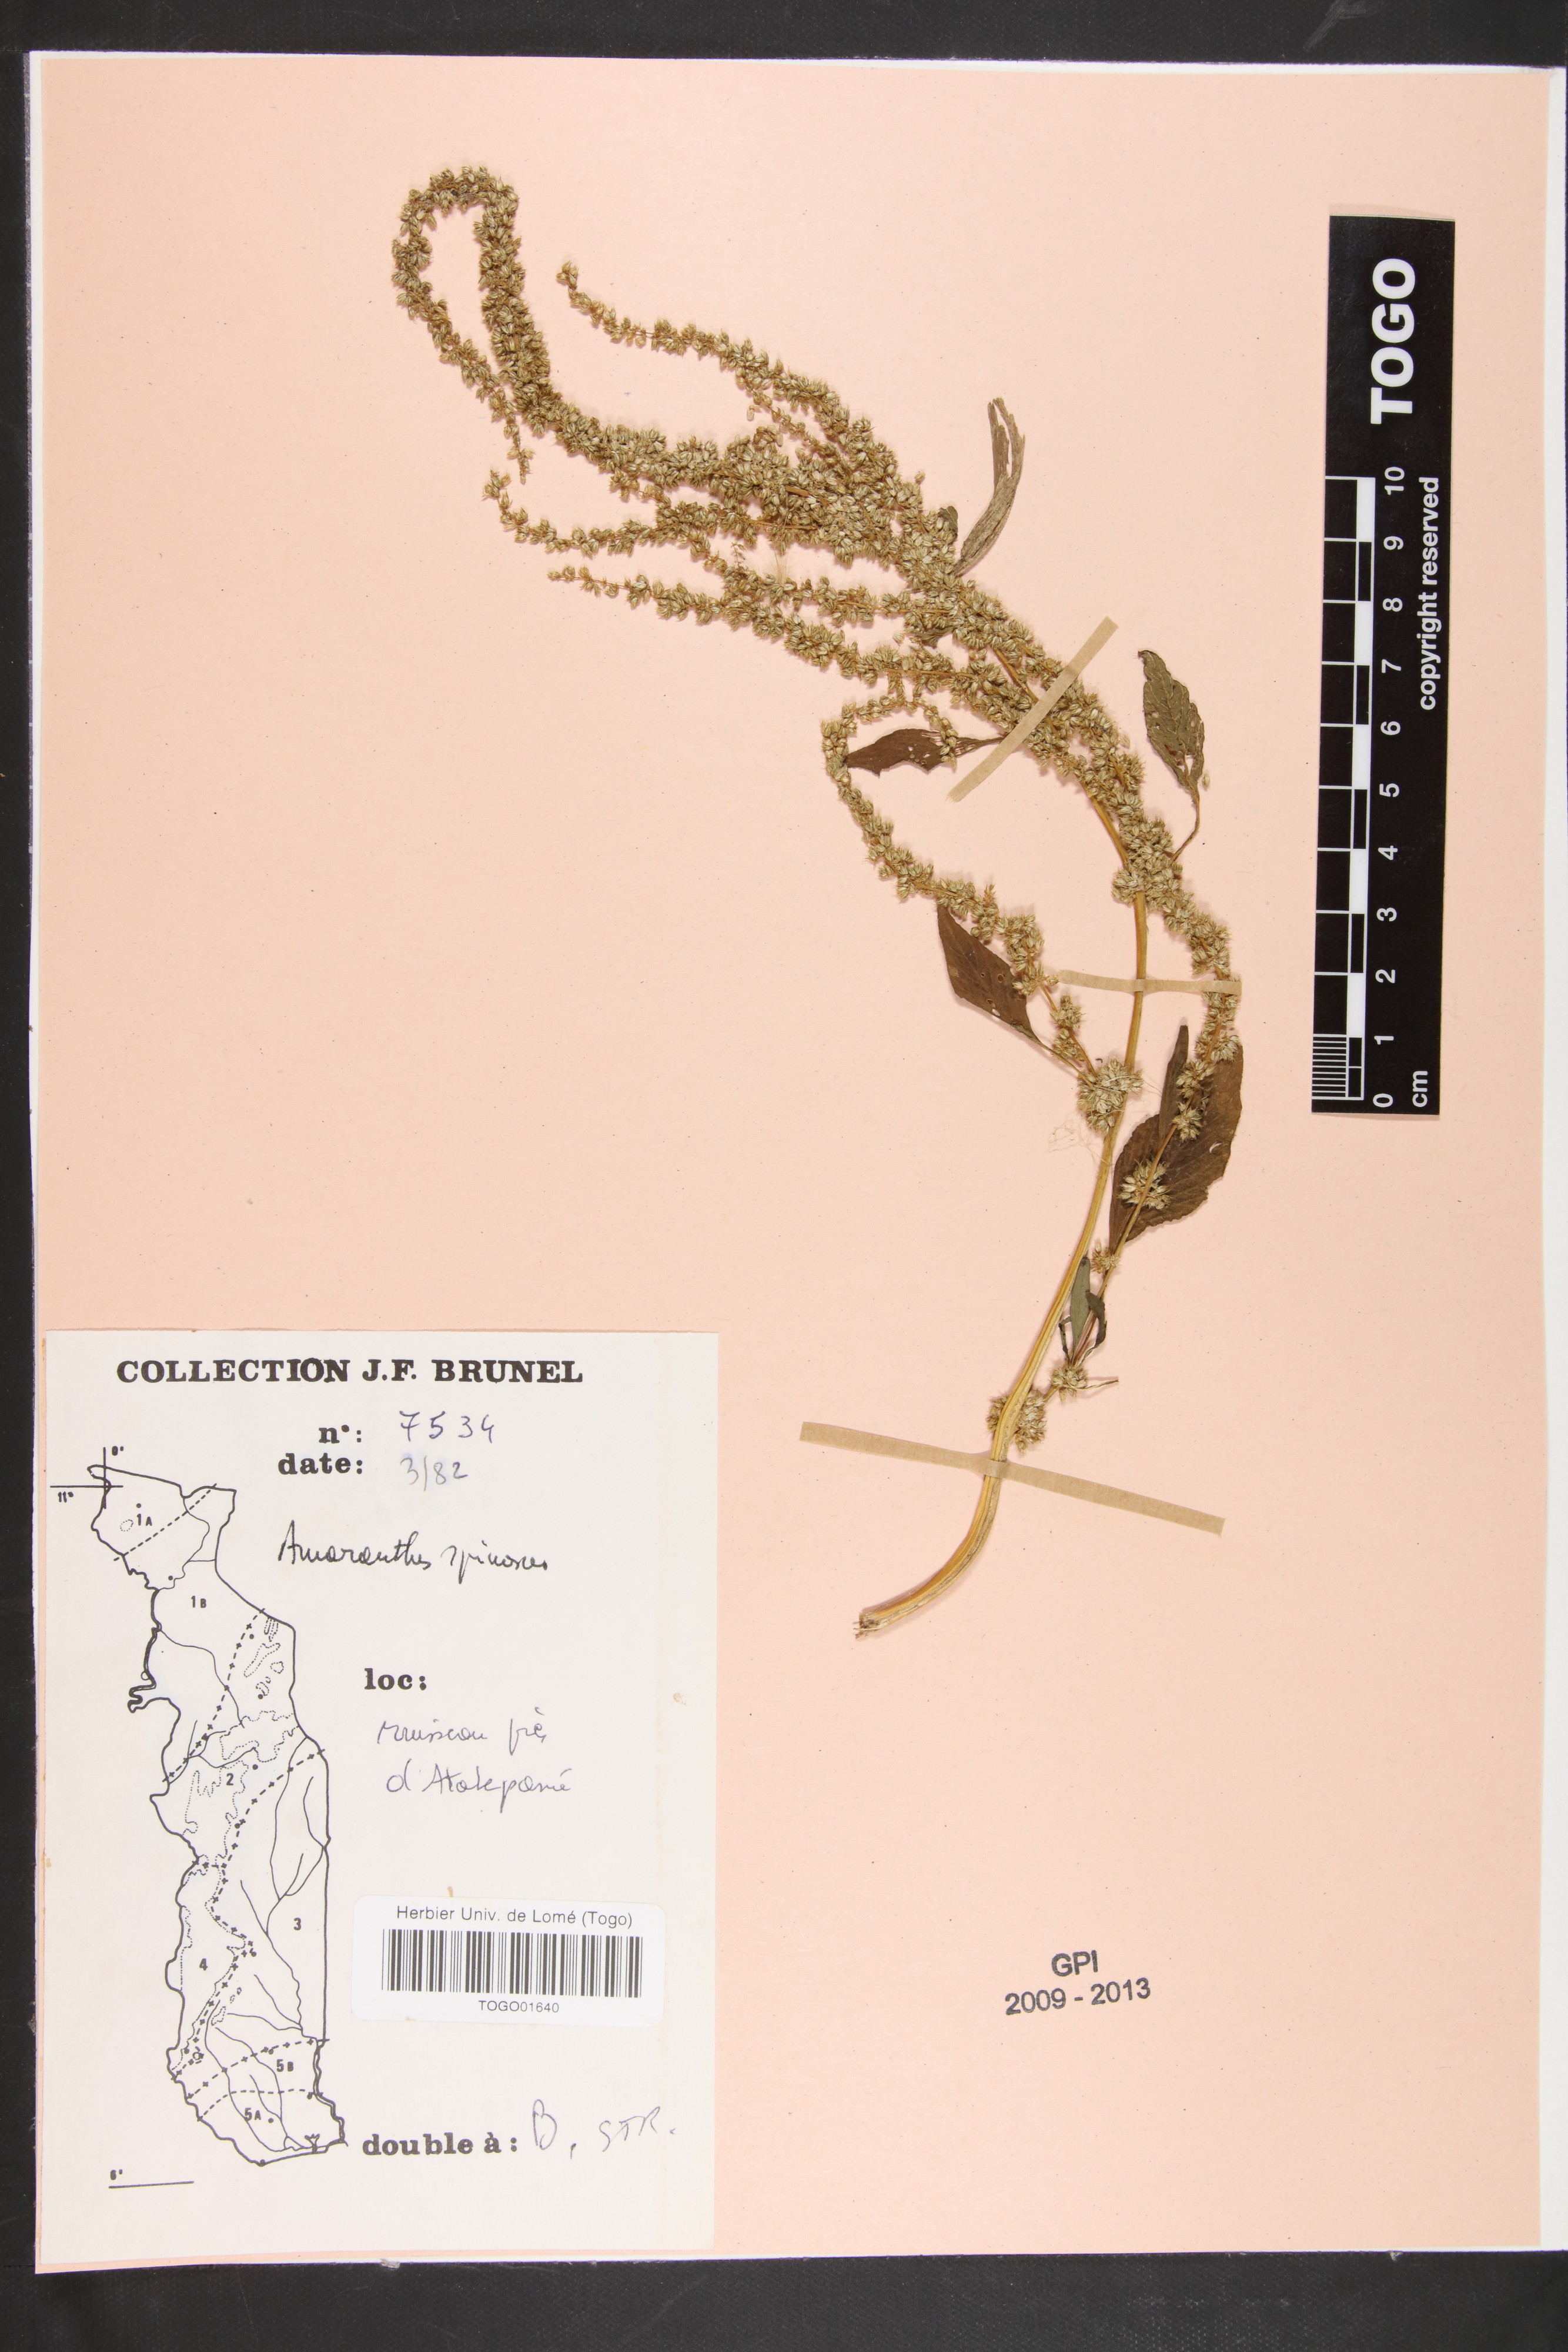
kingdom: Plantae
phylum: Tracheophyta
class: Magnoliopsida
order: Caryophyllales
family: Amaranthaceae
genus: Amaranthus
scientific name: Amaranthus dubius
